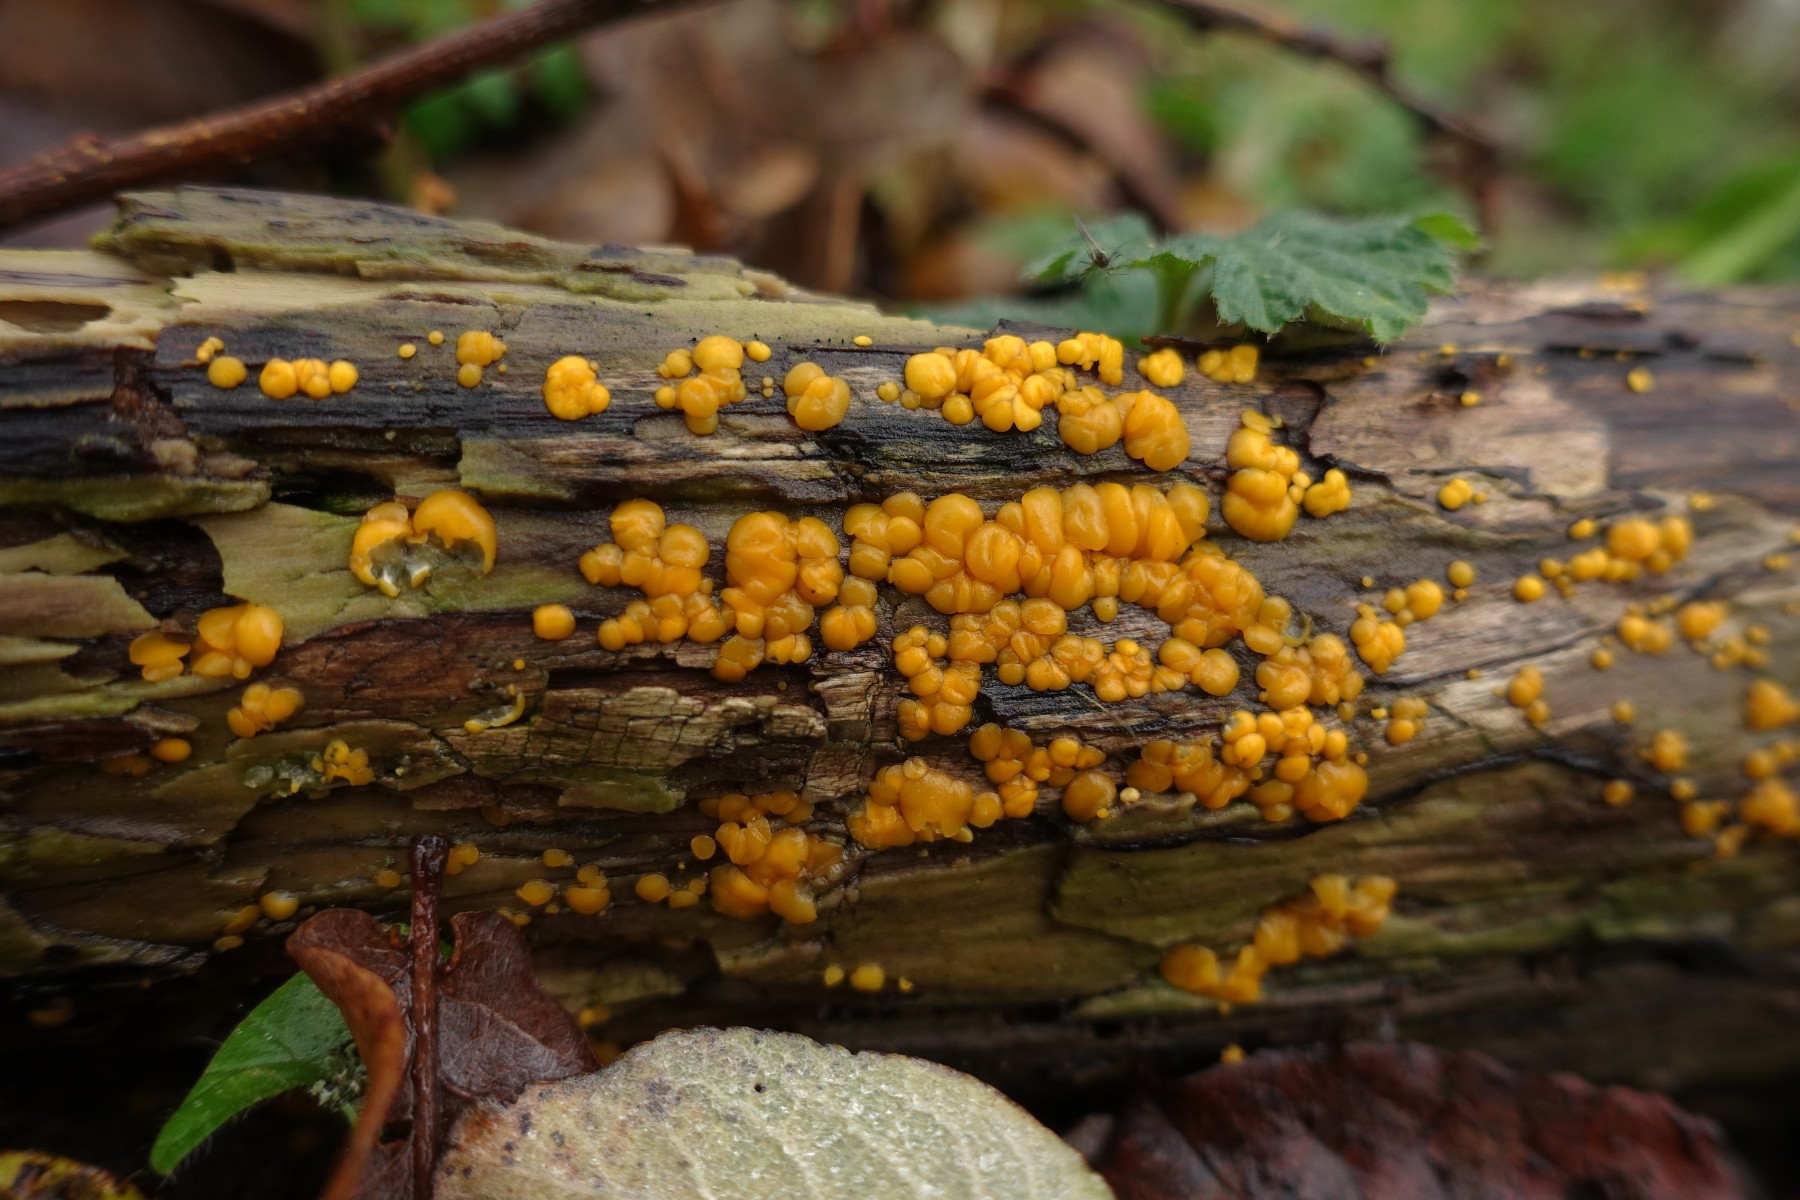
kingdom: Fungi
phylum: Ascomycota
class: Leotiomycetes
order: Helotiales
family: Pezizellaceae
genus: Calycina
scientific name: Calycina citrina
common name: almindelig gulskive
